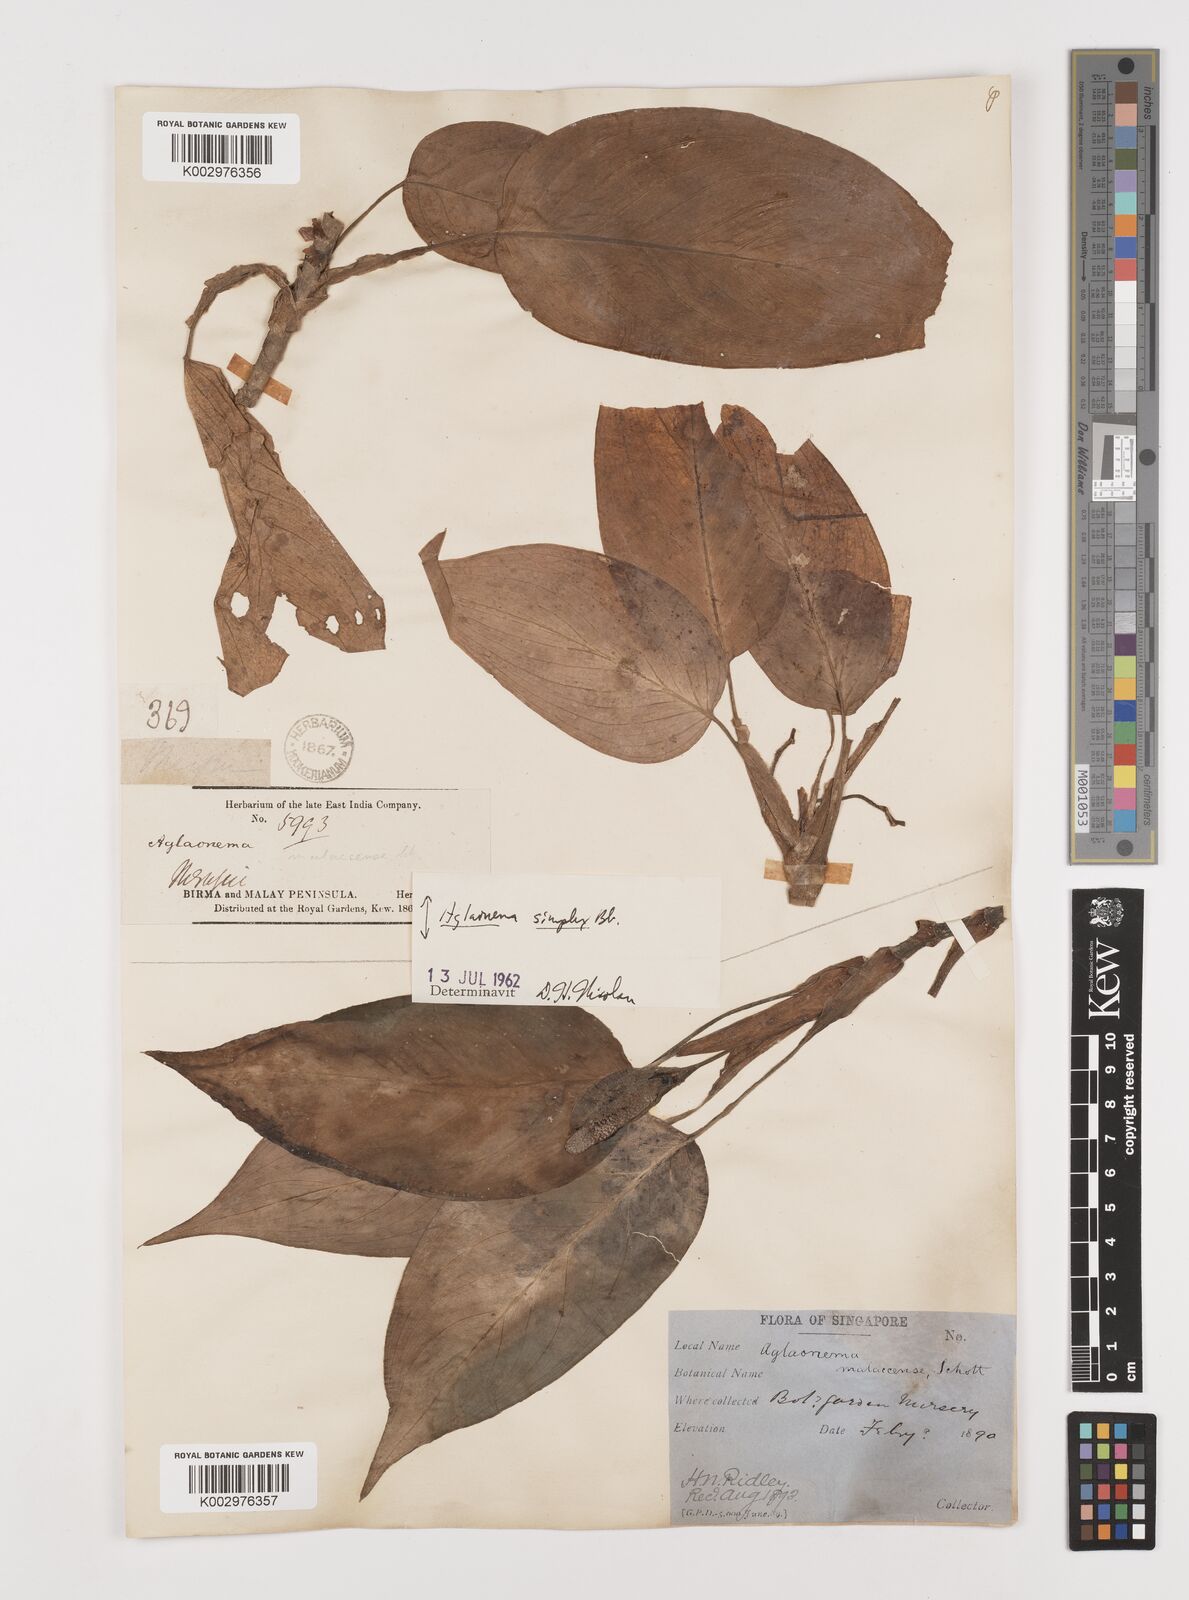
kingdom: Plantae
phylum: Tracheophyta
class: Liliopsida
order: Alismatales
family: Araceae
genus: Aglaonema
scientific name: Aglaonema simplex
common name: Malayan-sword
